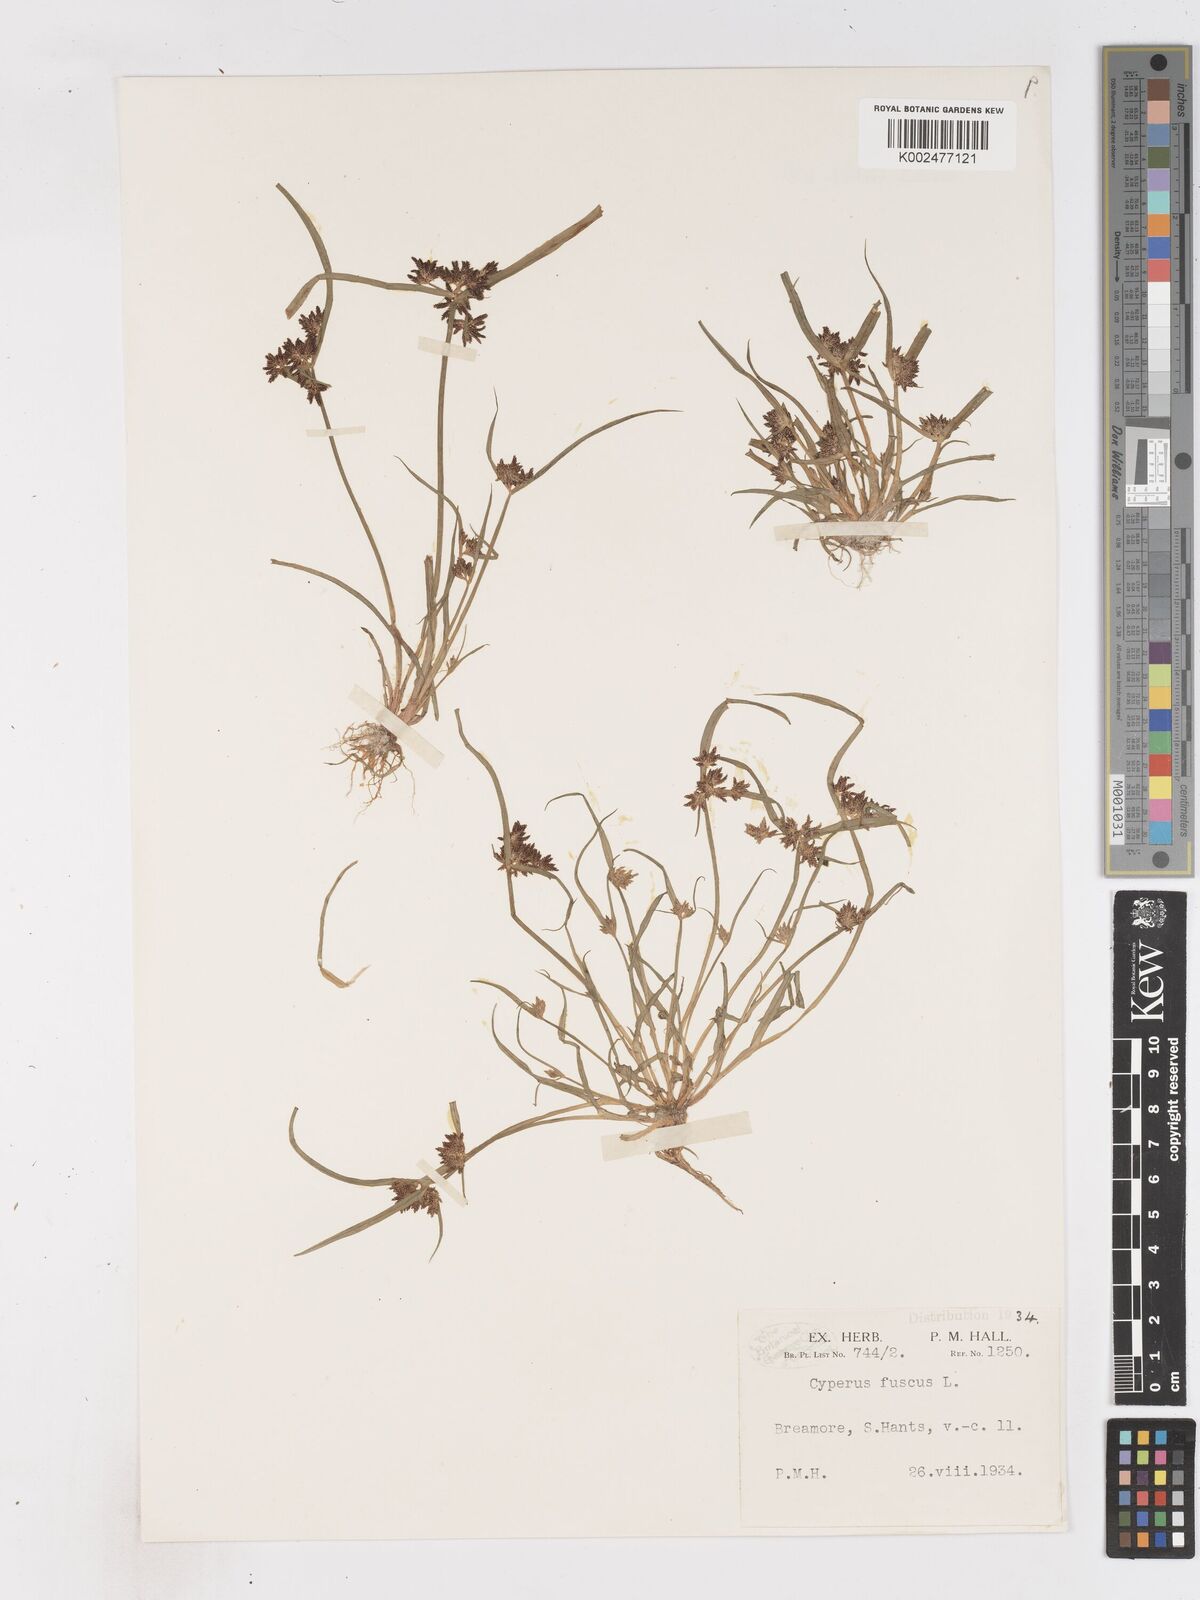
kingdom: Plantae
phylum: Tracheophyta
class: Liliopsida
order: Poales
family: Cyperaceae
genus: Cyperus
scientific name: Cyperus fuscus
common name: Brown galingale
